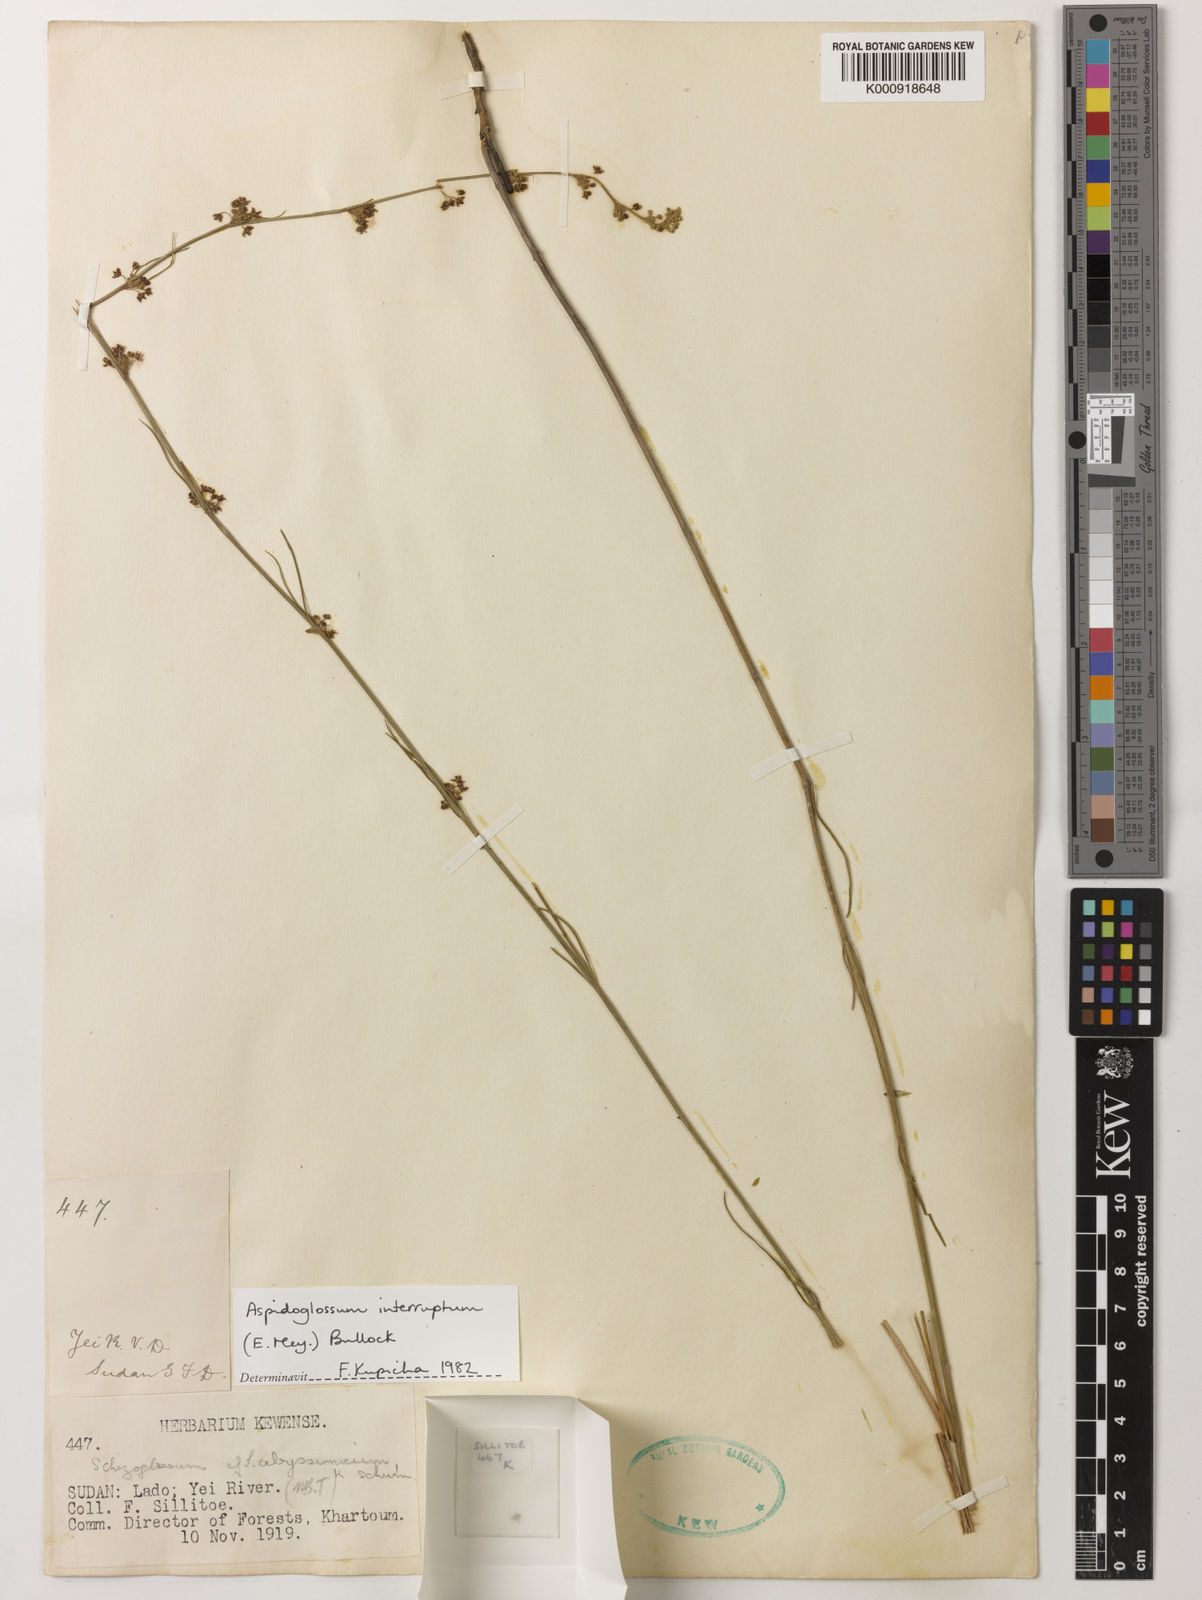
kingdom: Plantae
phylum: Tracheophyta
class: Magnoliopsida
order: Gentianales
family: Apocynaceae
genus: Aspidoglossum
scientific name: Aspidoglossum interruptum
